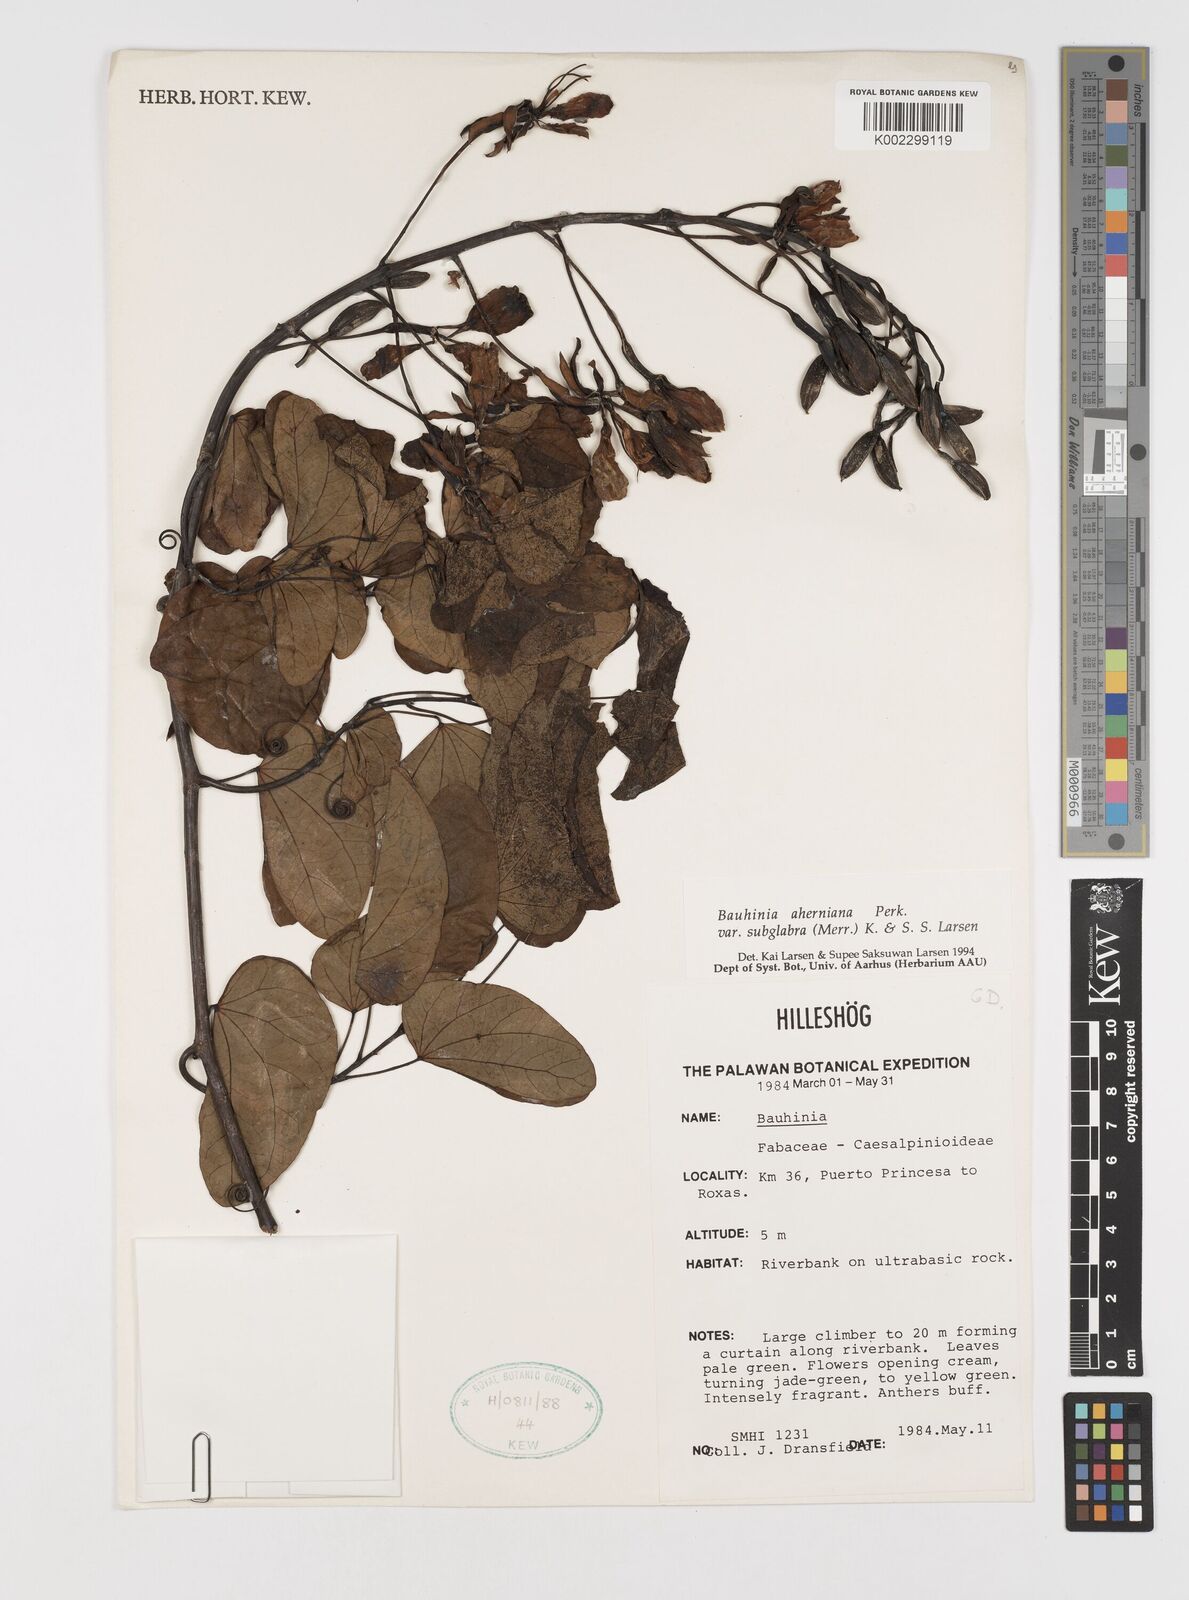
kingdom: Plantae
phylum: Tracheophyta
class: Magnoliopsida
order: Fabales
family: Fabaceae
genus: Phanera
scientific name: Phanera aherniana
